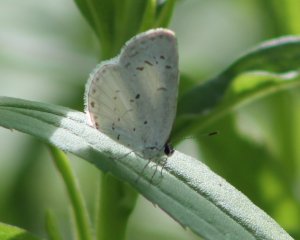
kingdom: Animalia
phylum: Arthropoda
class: Insecta
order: Lepidoptera
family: Lycaenidae
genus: Cyaniris
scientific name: Cyaniris neglecta
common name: Summer Azure
